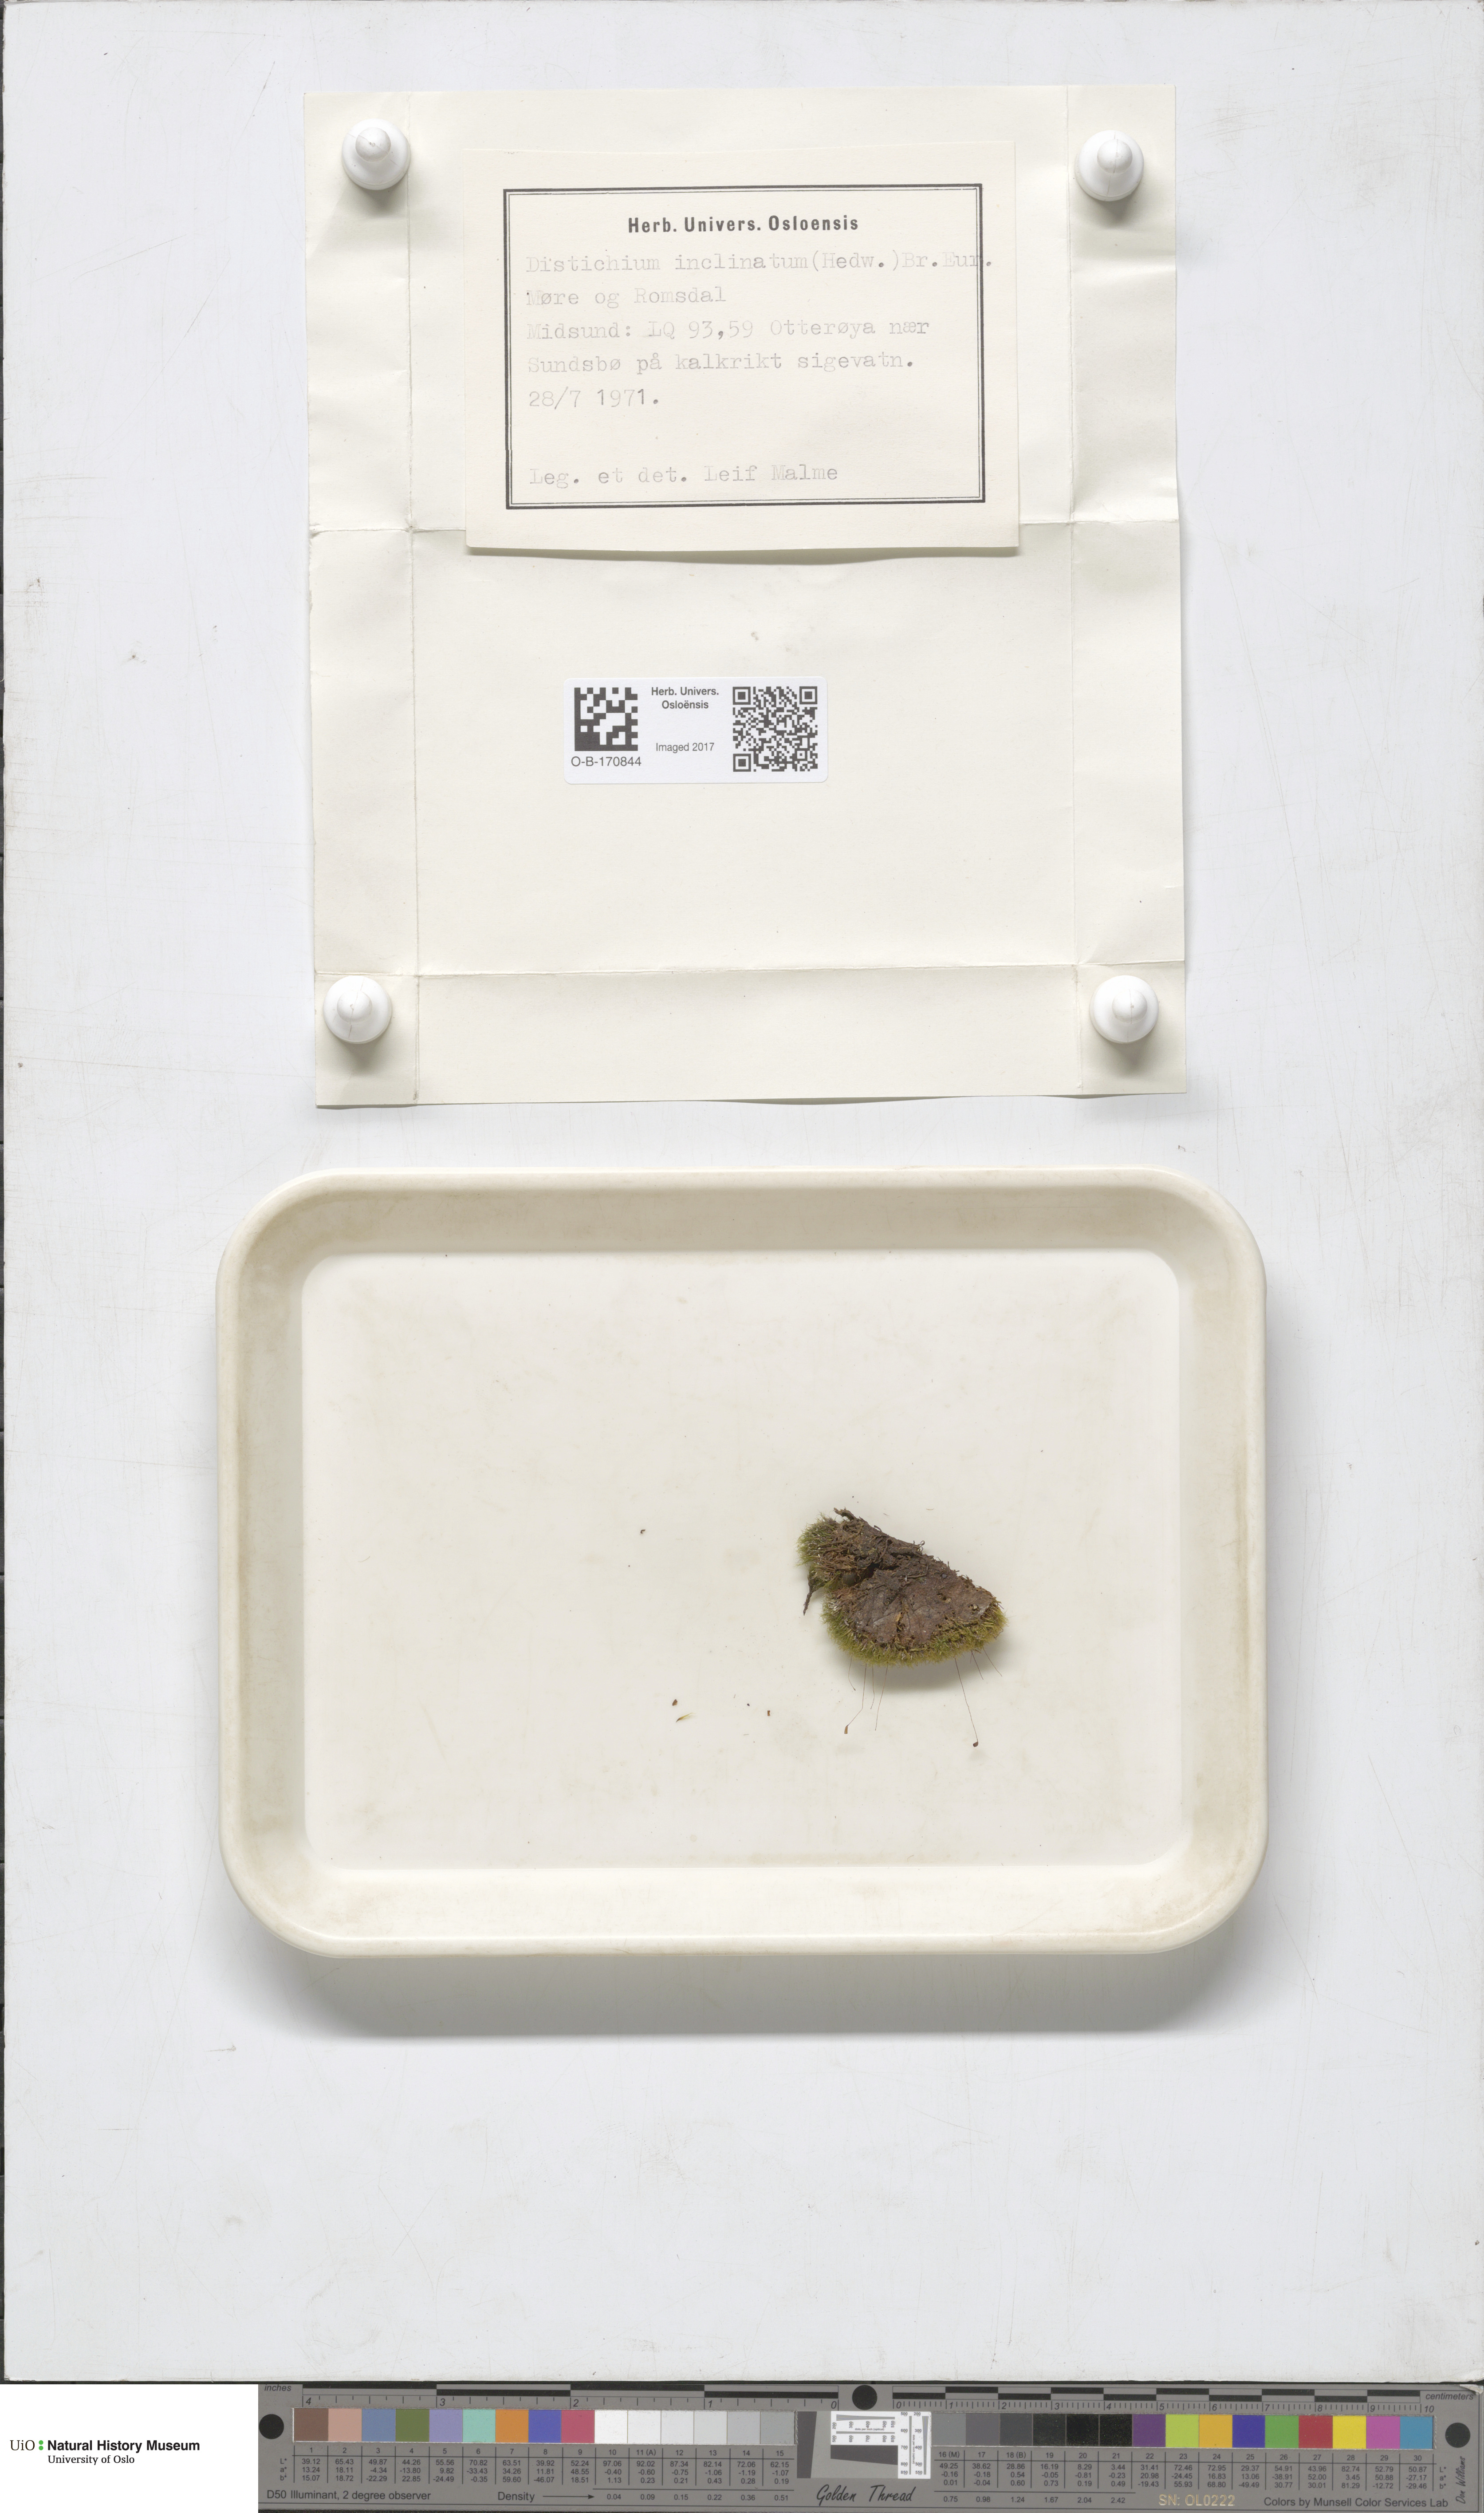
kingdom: Plantae
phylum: Bryophyta
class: Bryopsida
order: Scouleriales
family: Distichiaceae
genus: Distichium
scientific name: Distichium inclinatum
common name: Inclined iris moss
